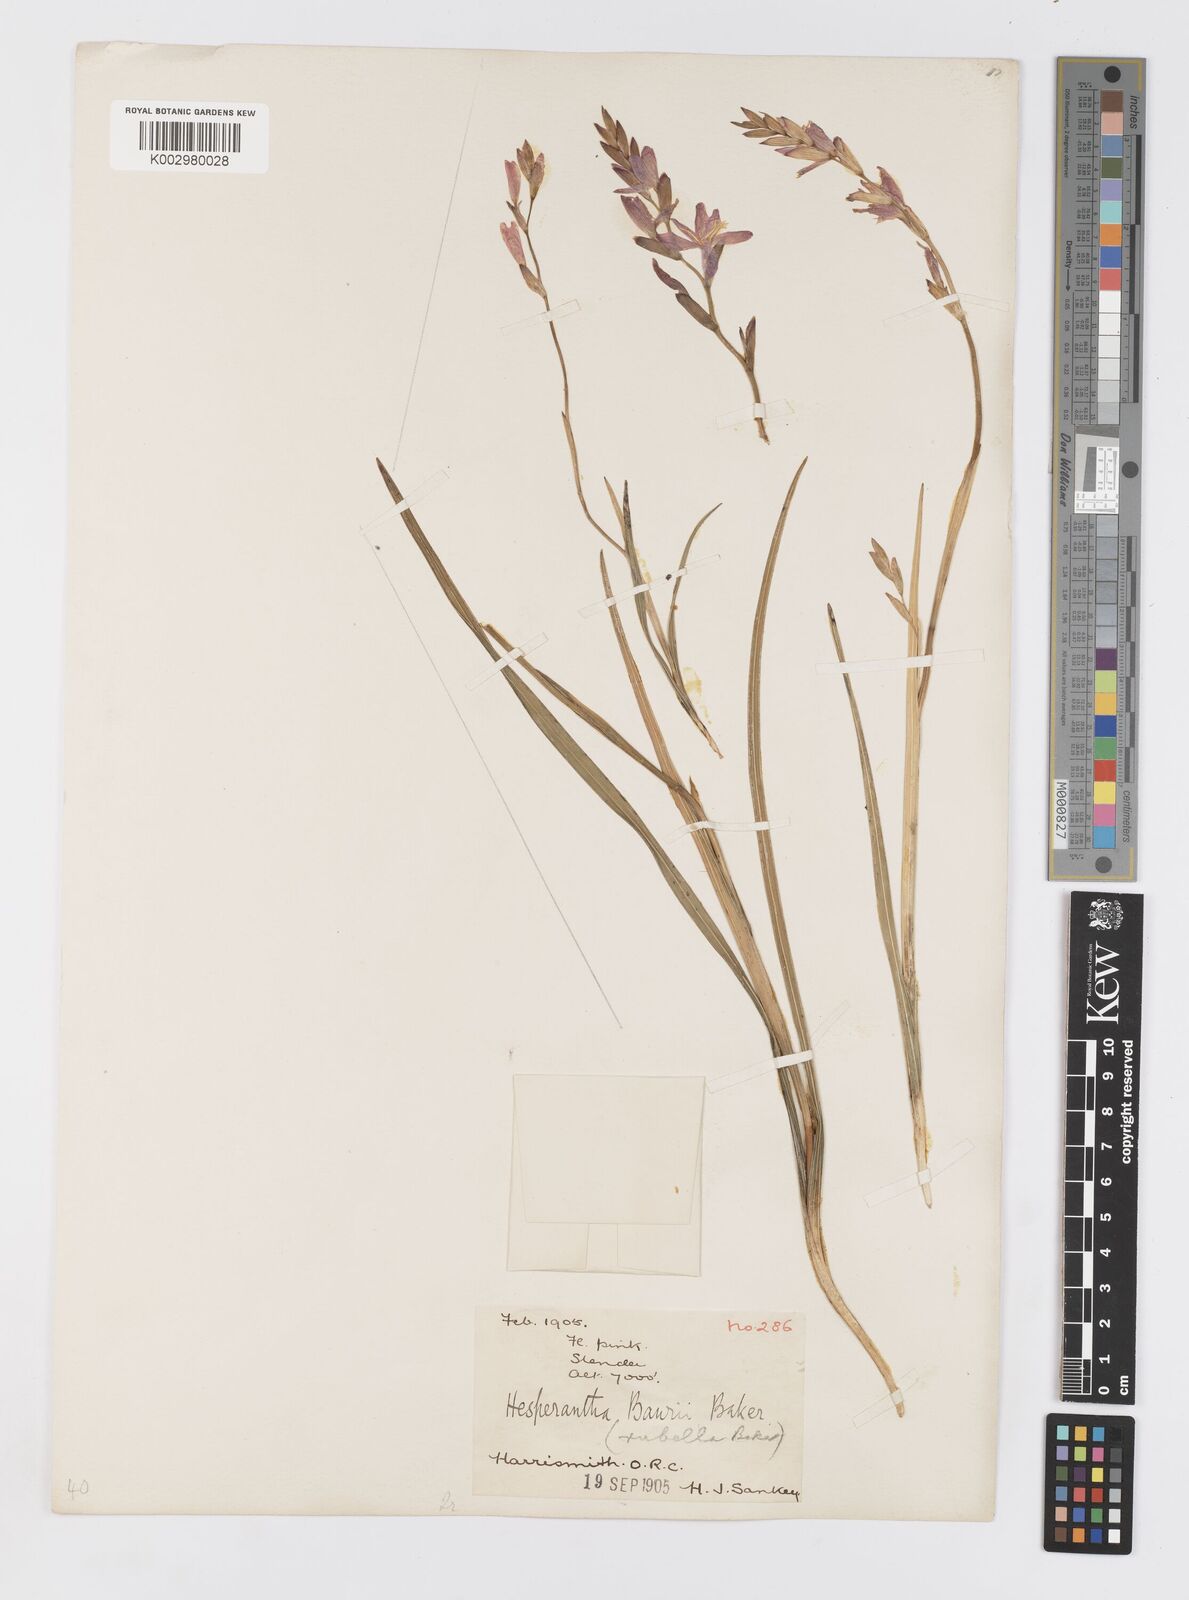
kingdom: Plantae
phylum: Tracheophyta
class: Liliopsida
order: Asparagales
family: Iridaceae
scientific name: Iridaceae
